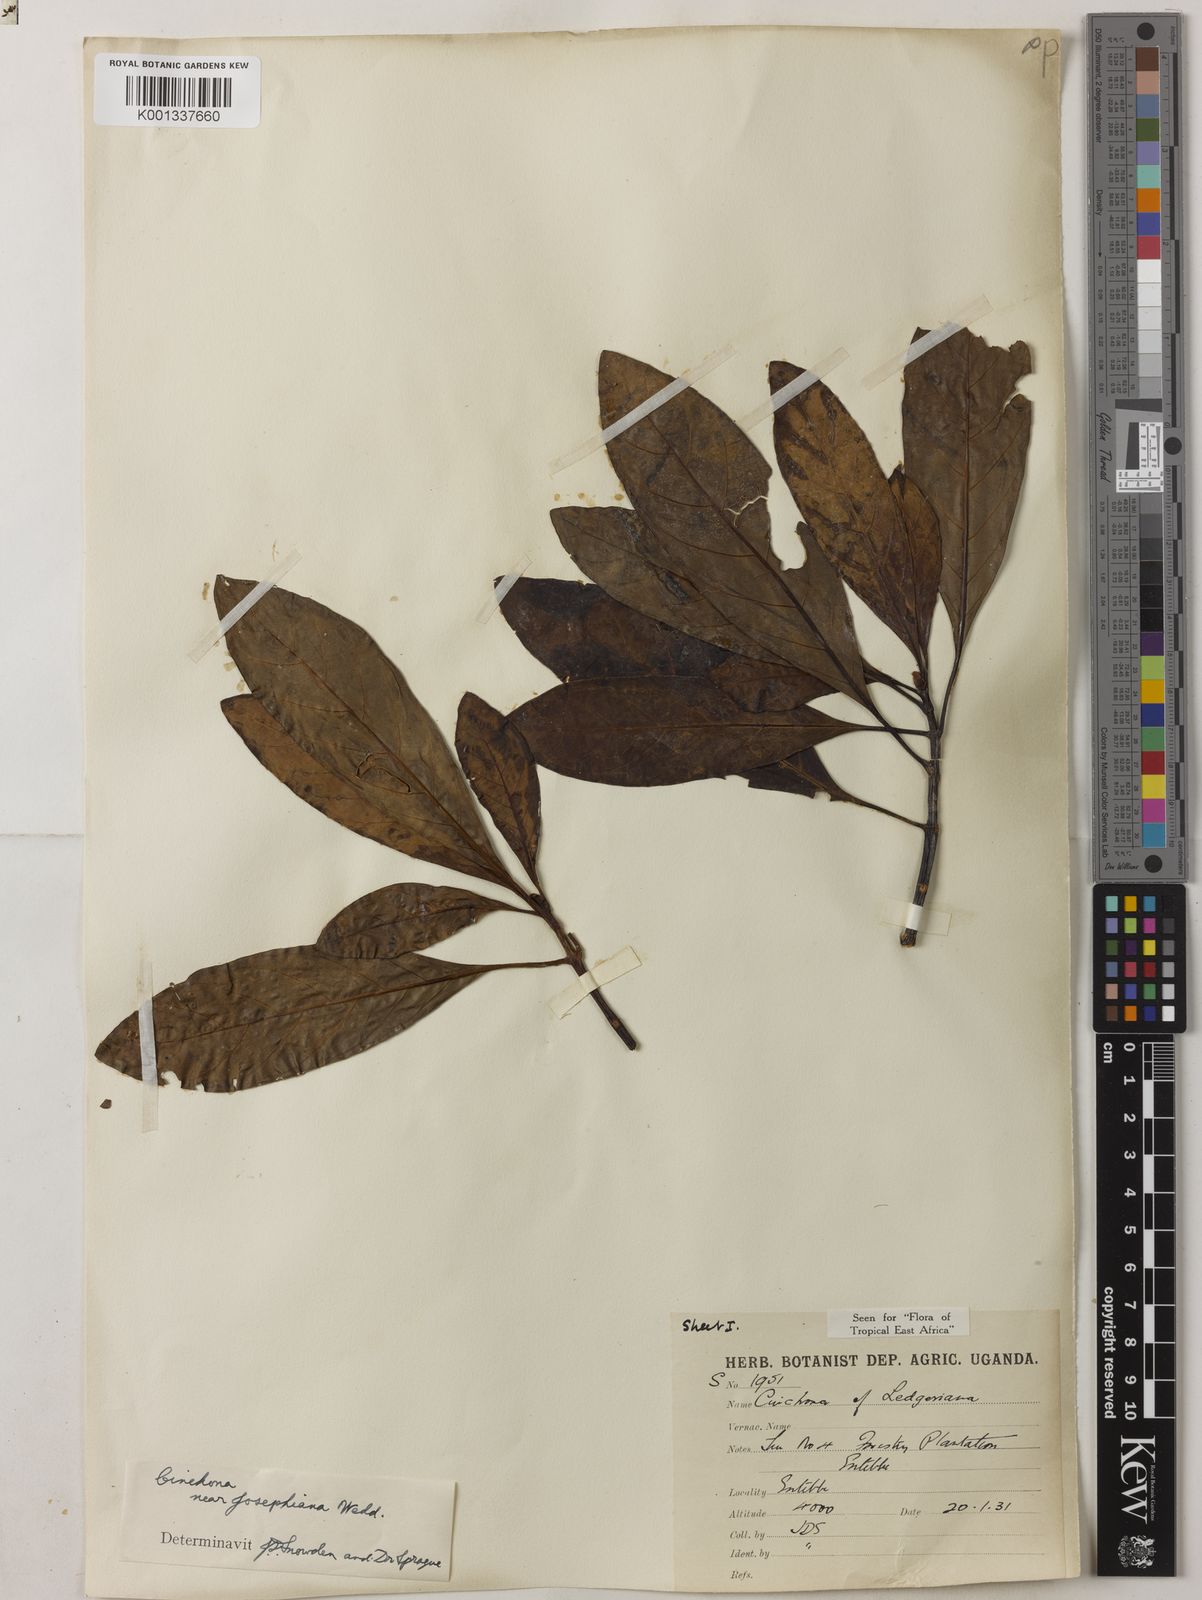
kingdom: Plantae
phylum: Tracheophyta
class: Magnoliopsida
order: Gentianales
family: Rubiaceae
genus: Cinchona
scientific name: Cinchona calisaya
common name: Ledgerbark
